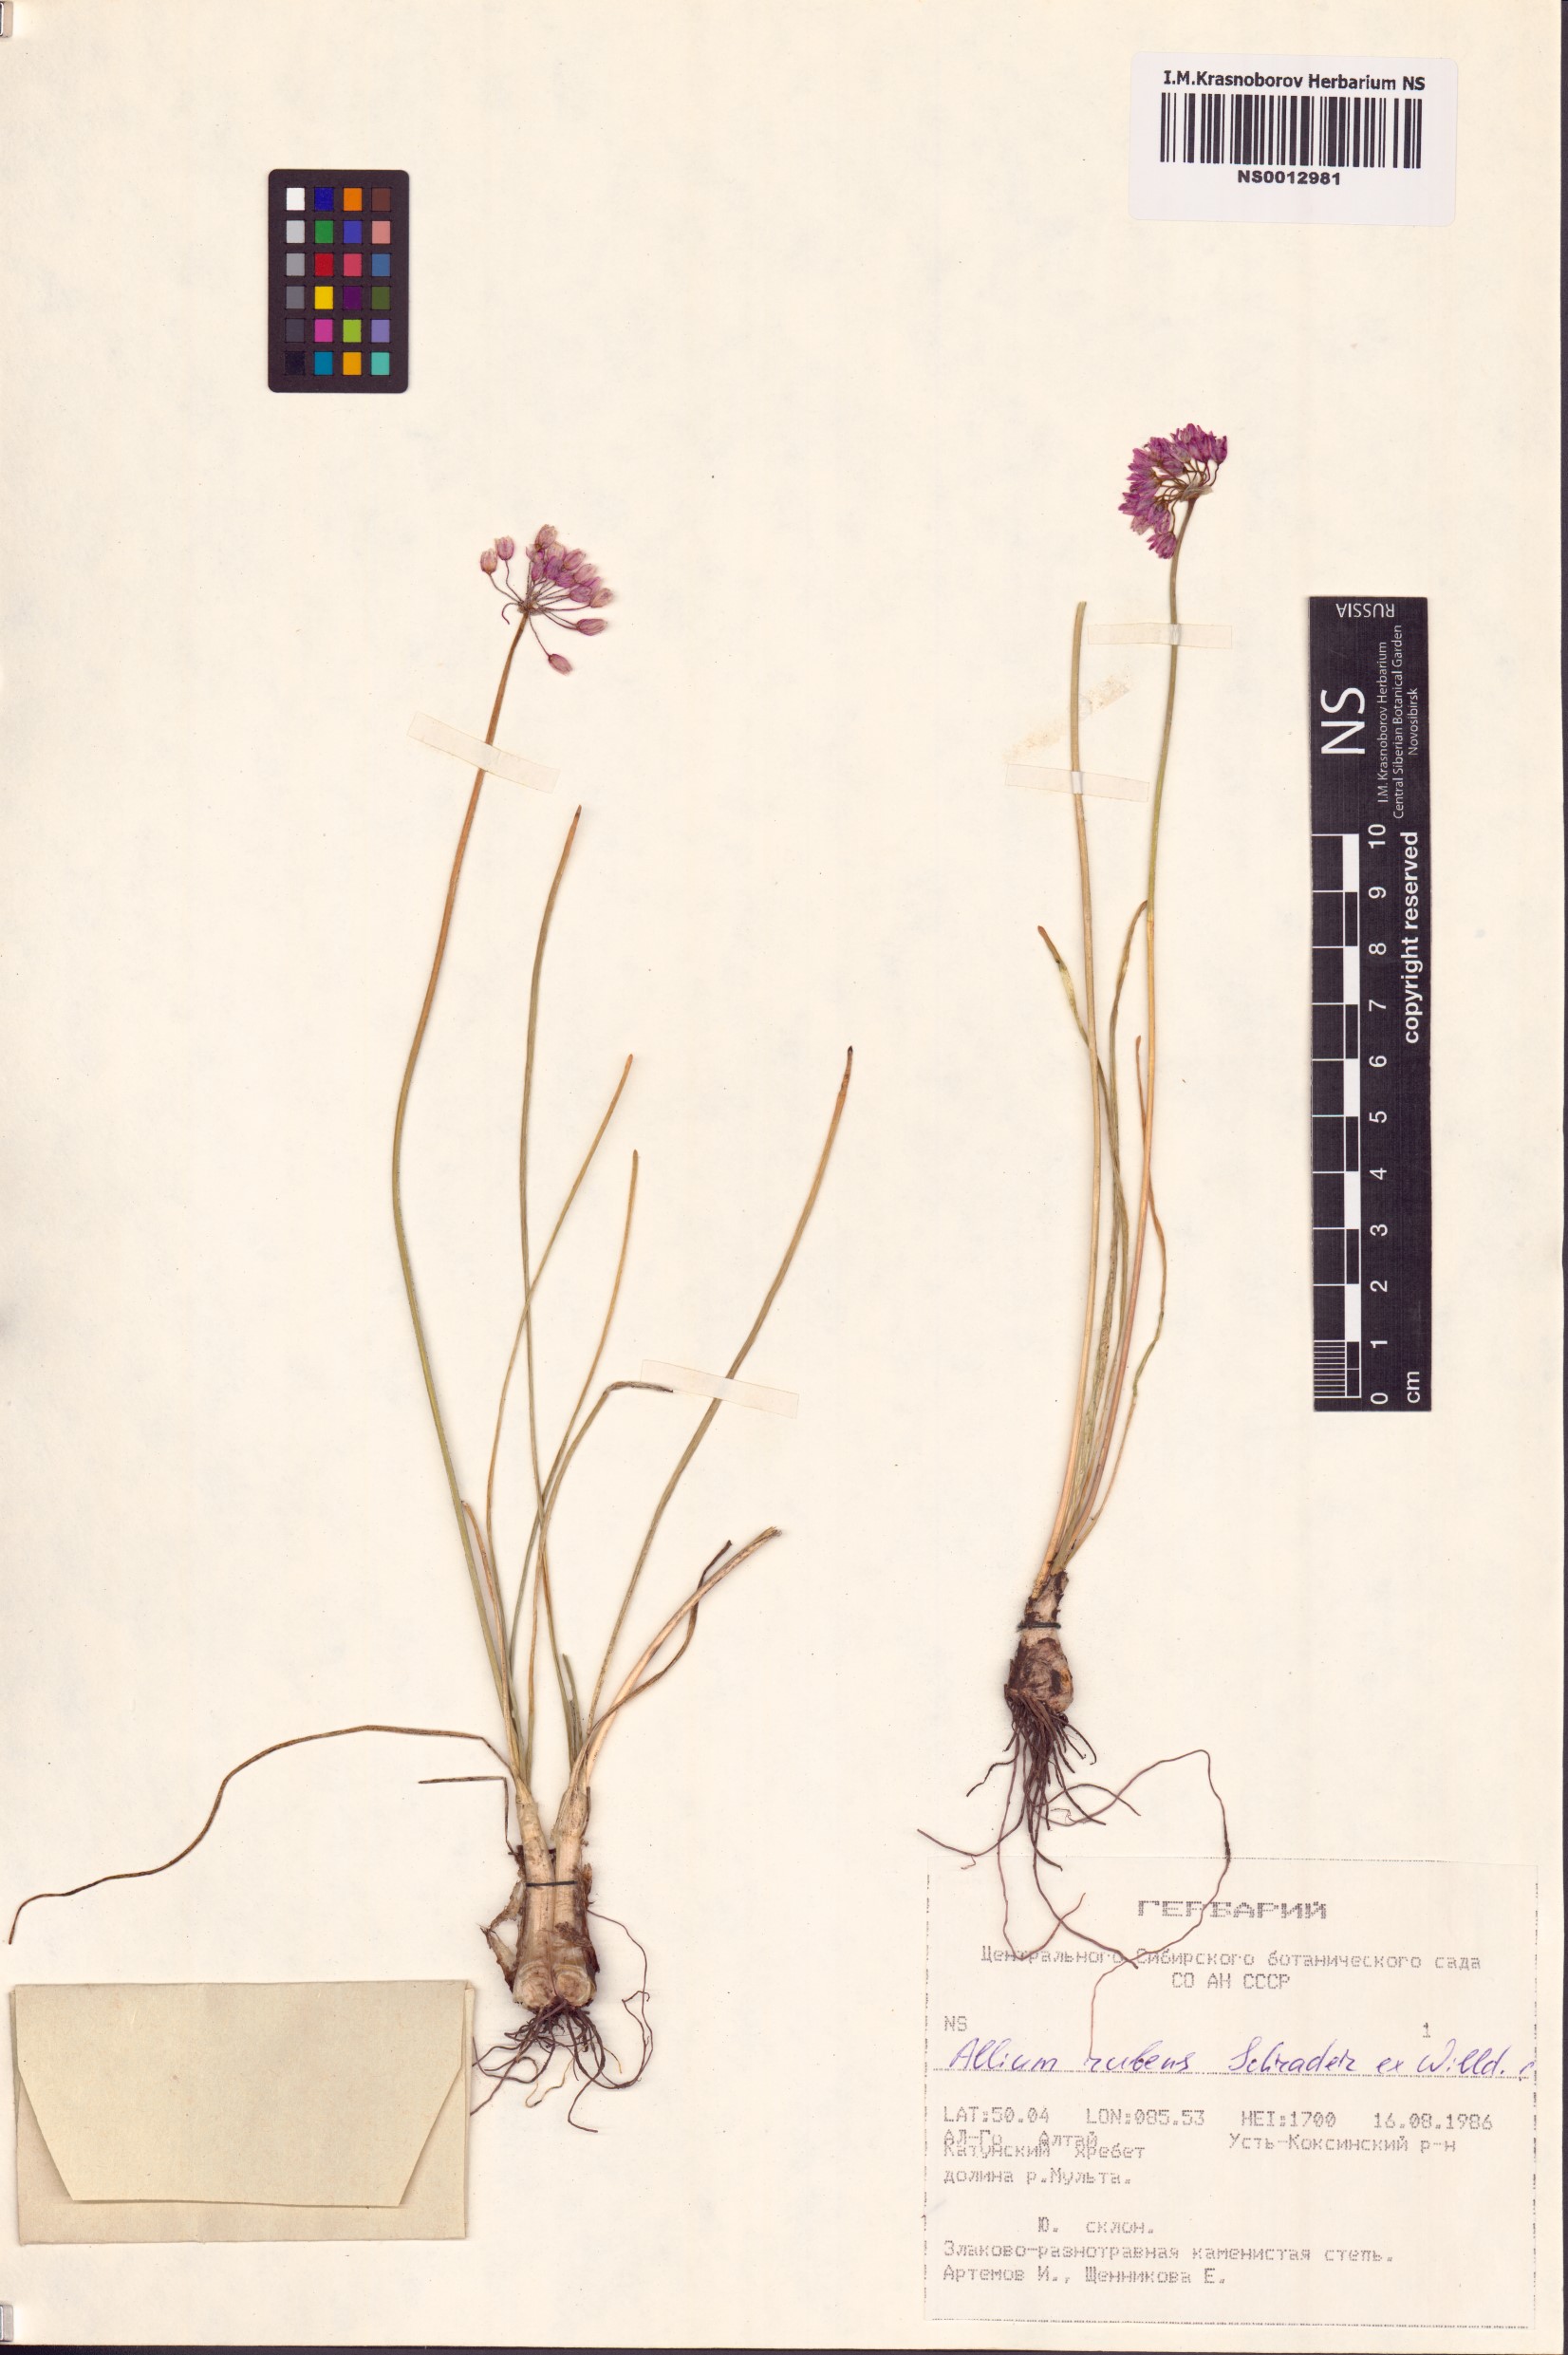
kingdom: Plantae
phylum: Tracheophyta
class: Liliopsida
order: Asparagales
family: Amaryllidaceae
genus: Allium
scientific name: Allium rubens
